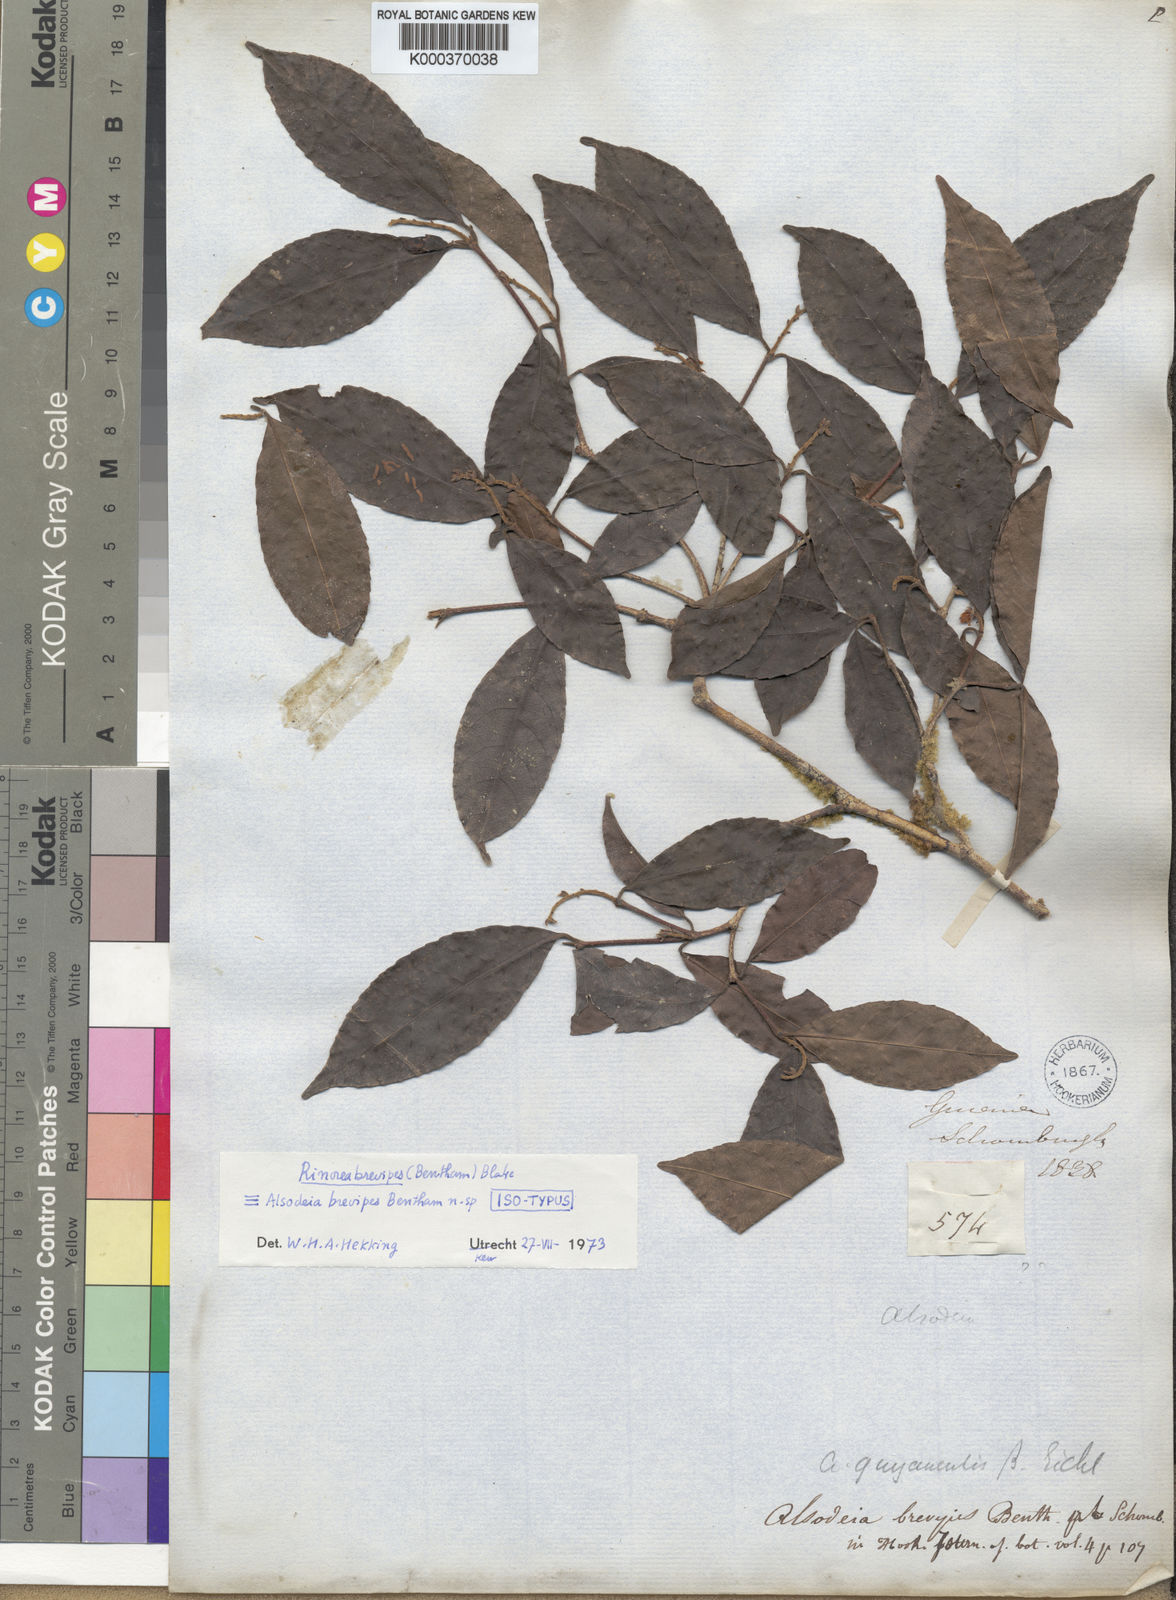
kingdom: Plantae
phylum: Tracheophyta
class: Magnoliopsida
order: Malpighiales
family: Violaceae
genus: Rinorea
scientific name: Rinorea brevipes
